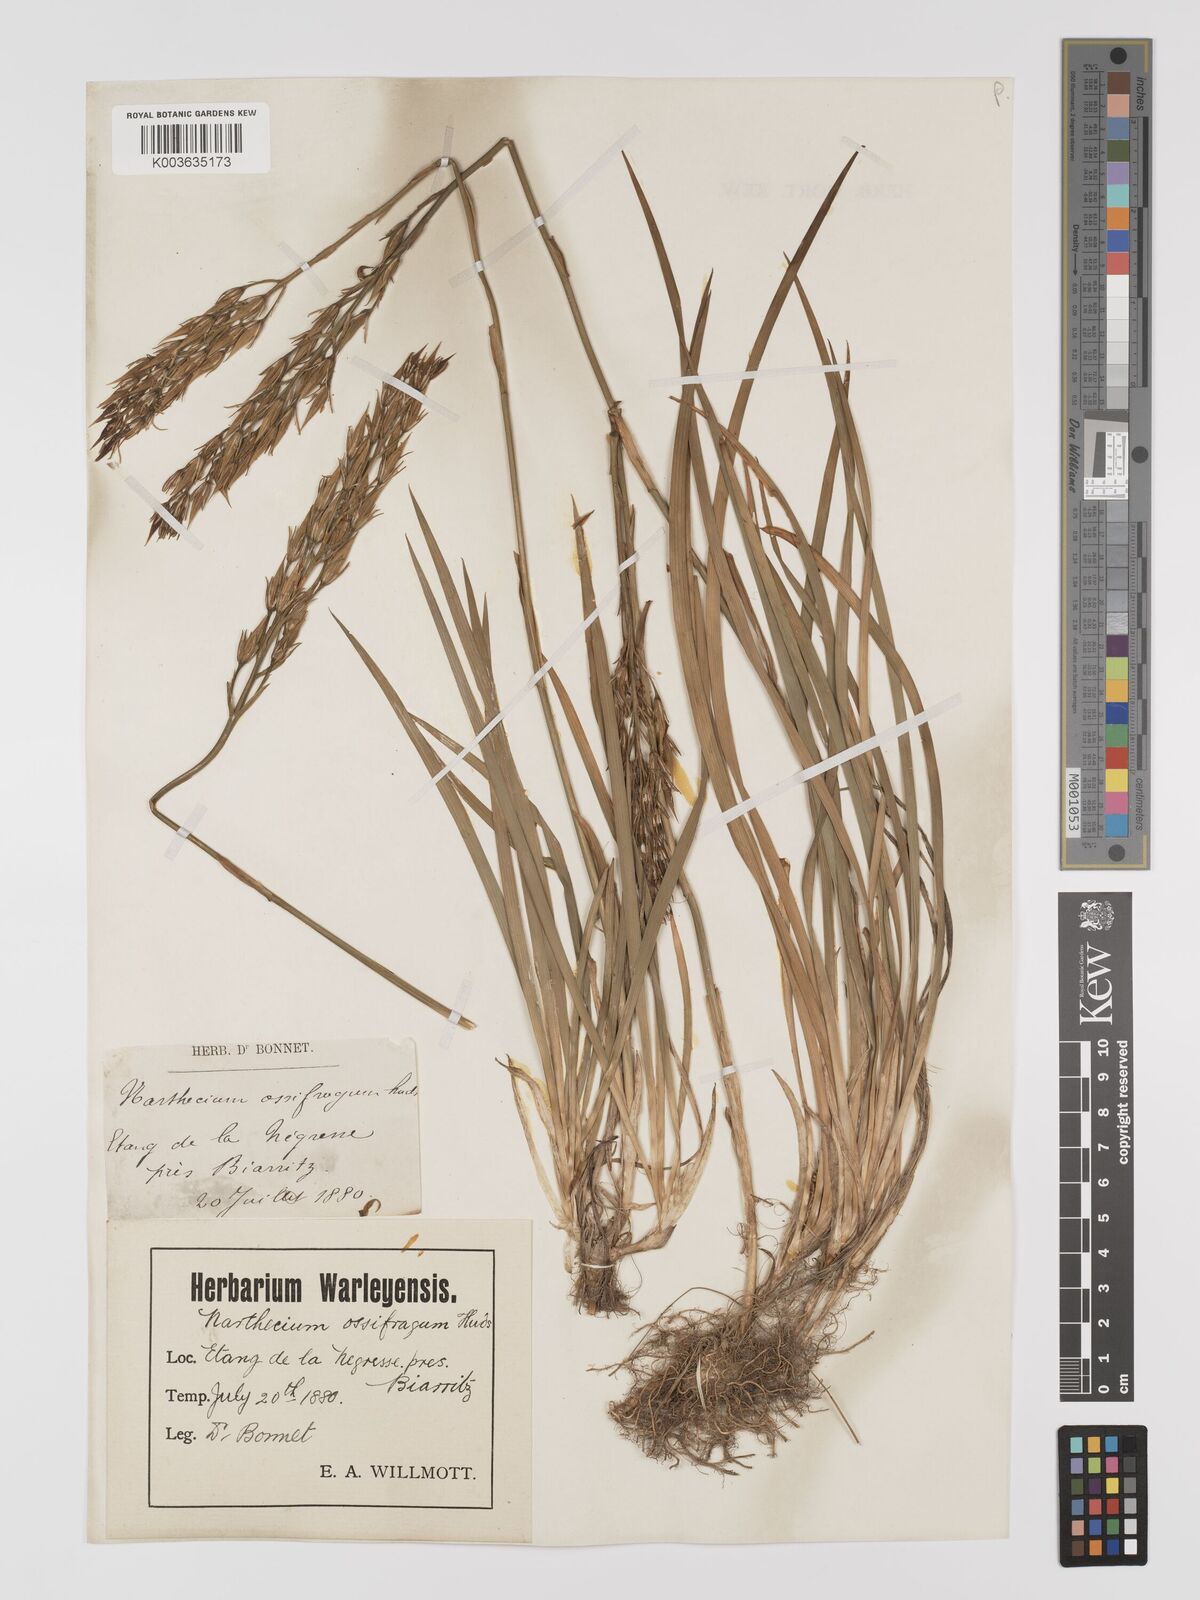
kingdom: Plantae
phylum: Tracheophyta
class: Liliopsida
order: Dioscoreales
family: Nartheciaceae
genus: Narthecium
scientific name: Narthecium ossifragum
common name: Bog asphodel
